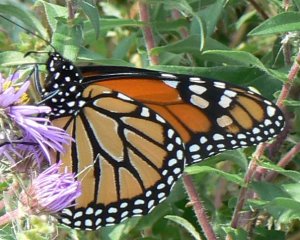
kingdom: Animalia
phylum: Arthropoda
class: Insecta
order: Lepidoptera
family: Nymphalidae
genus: Danaus
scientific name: Danaus plexippus
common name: Monarch
